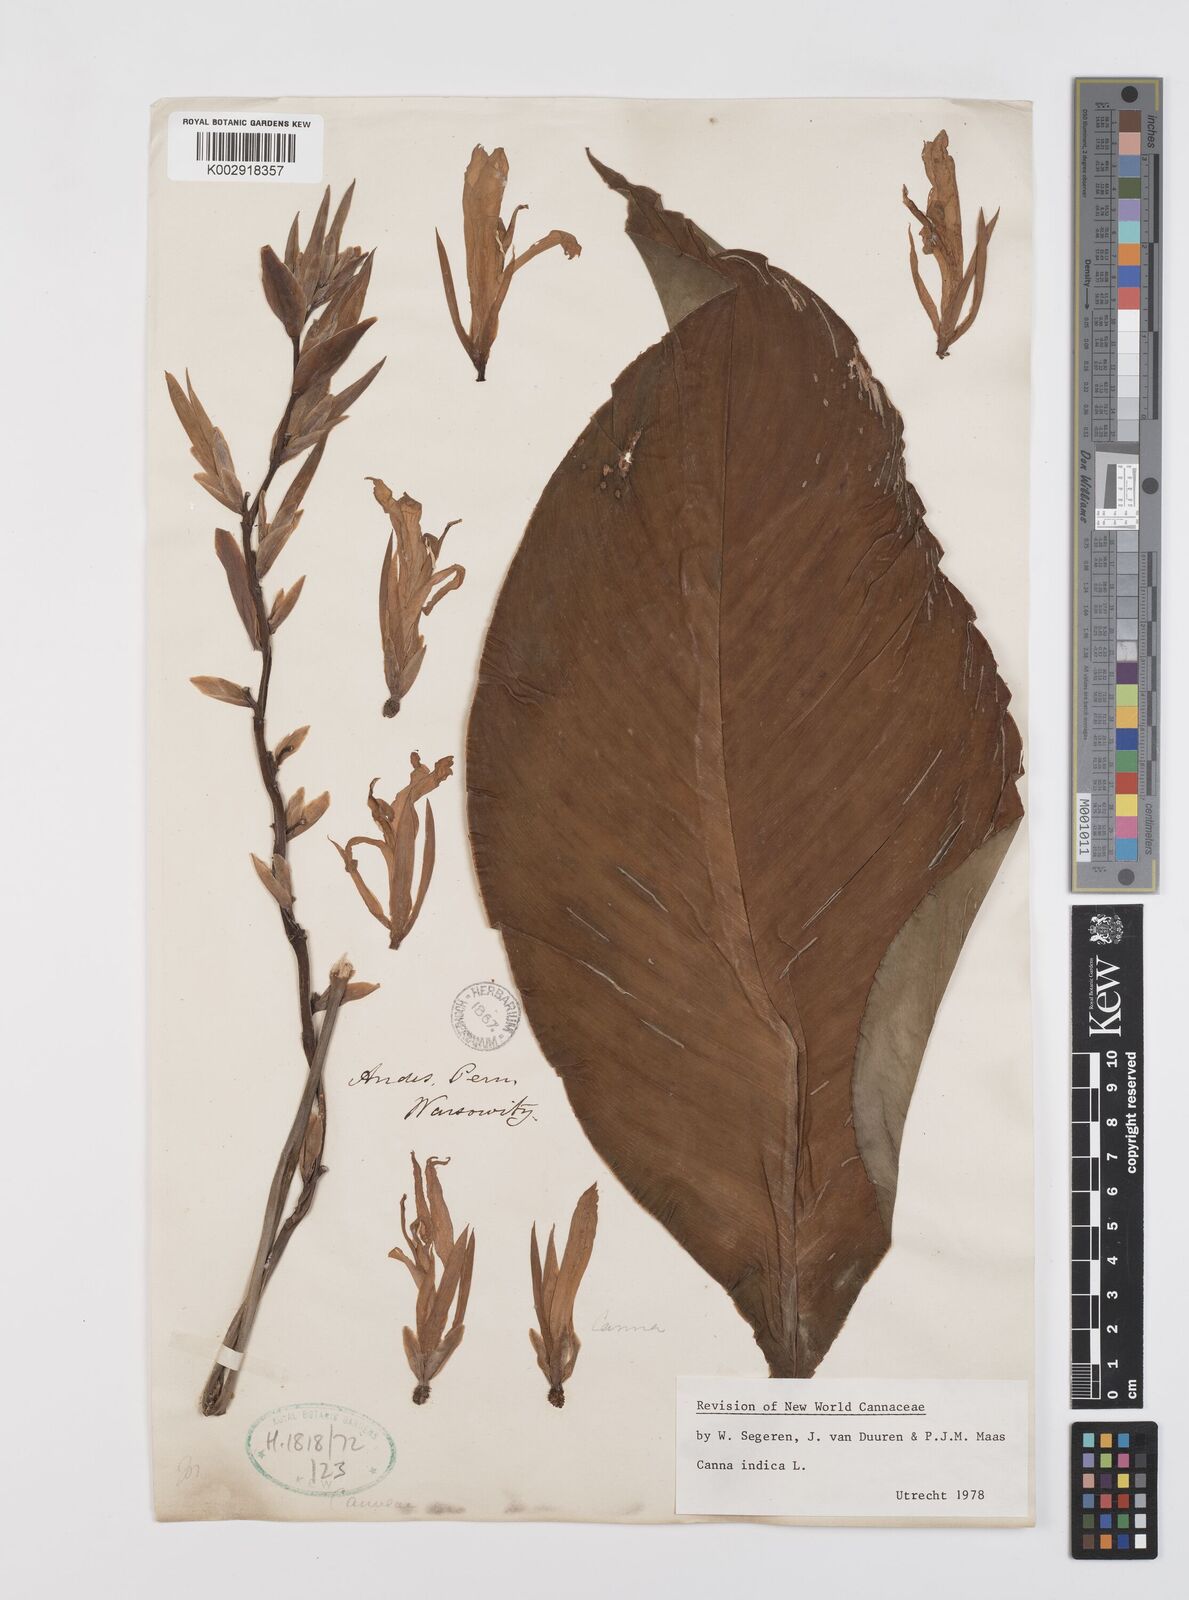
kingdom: Plantae
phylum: Tracheophyta
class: Liliopsida
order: Zingiberales
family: Cannaceae
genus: Canna
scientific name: Canna indica
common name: Indian shot
